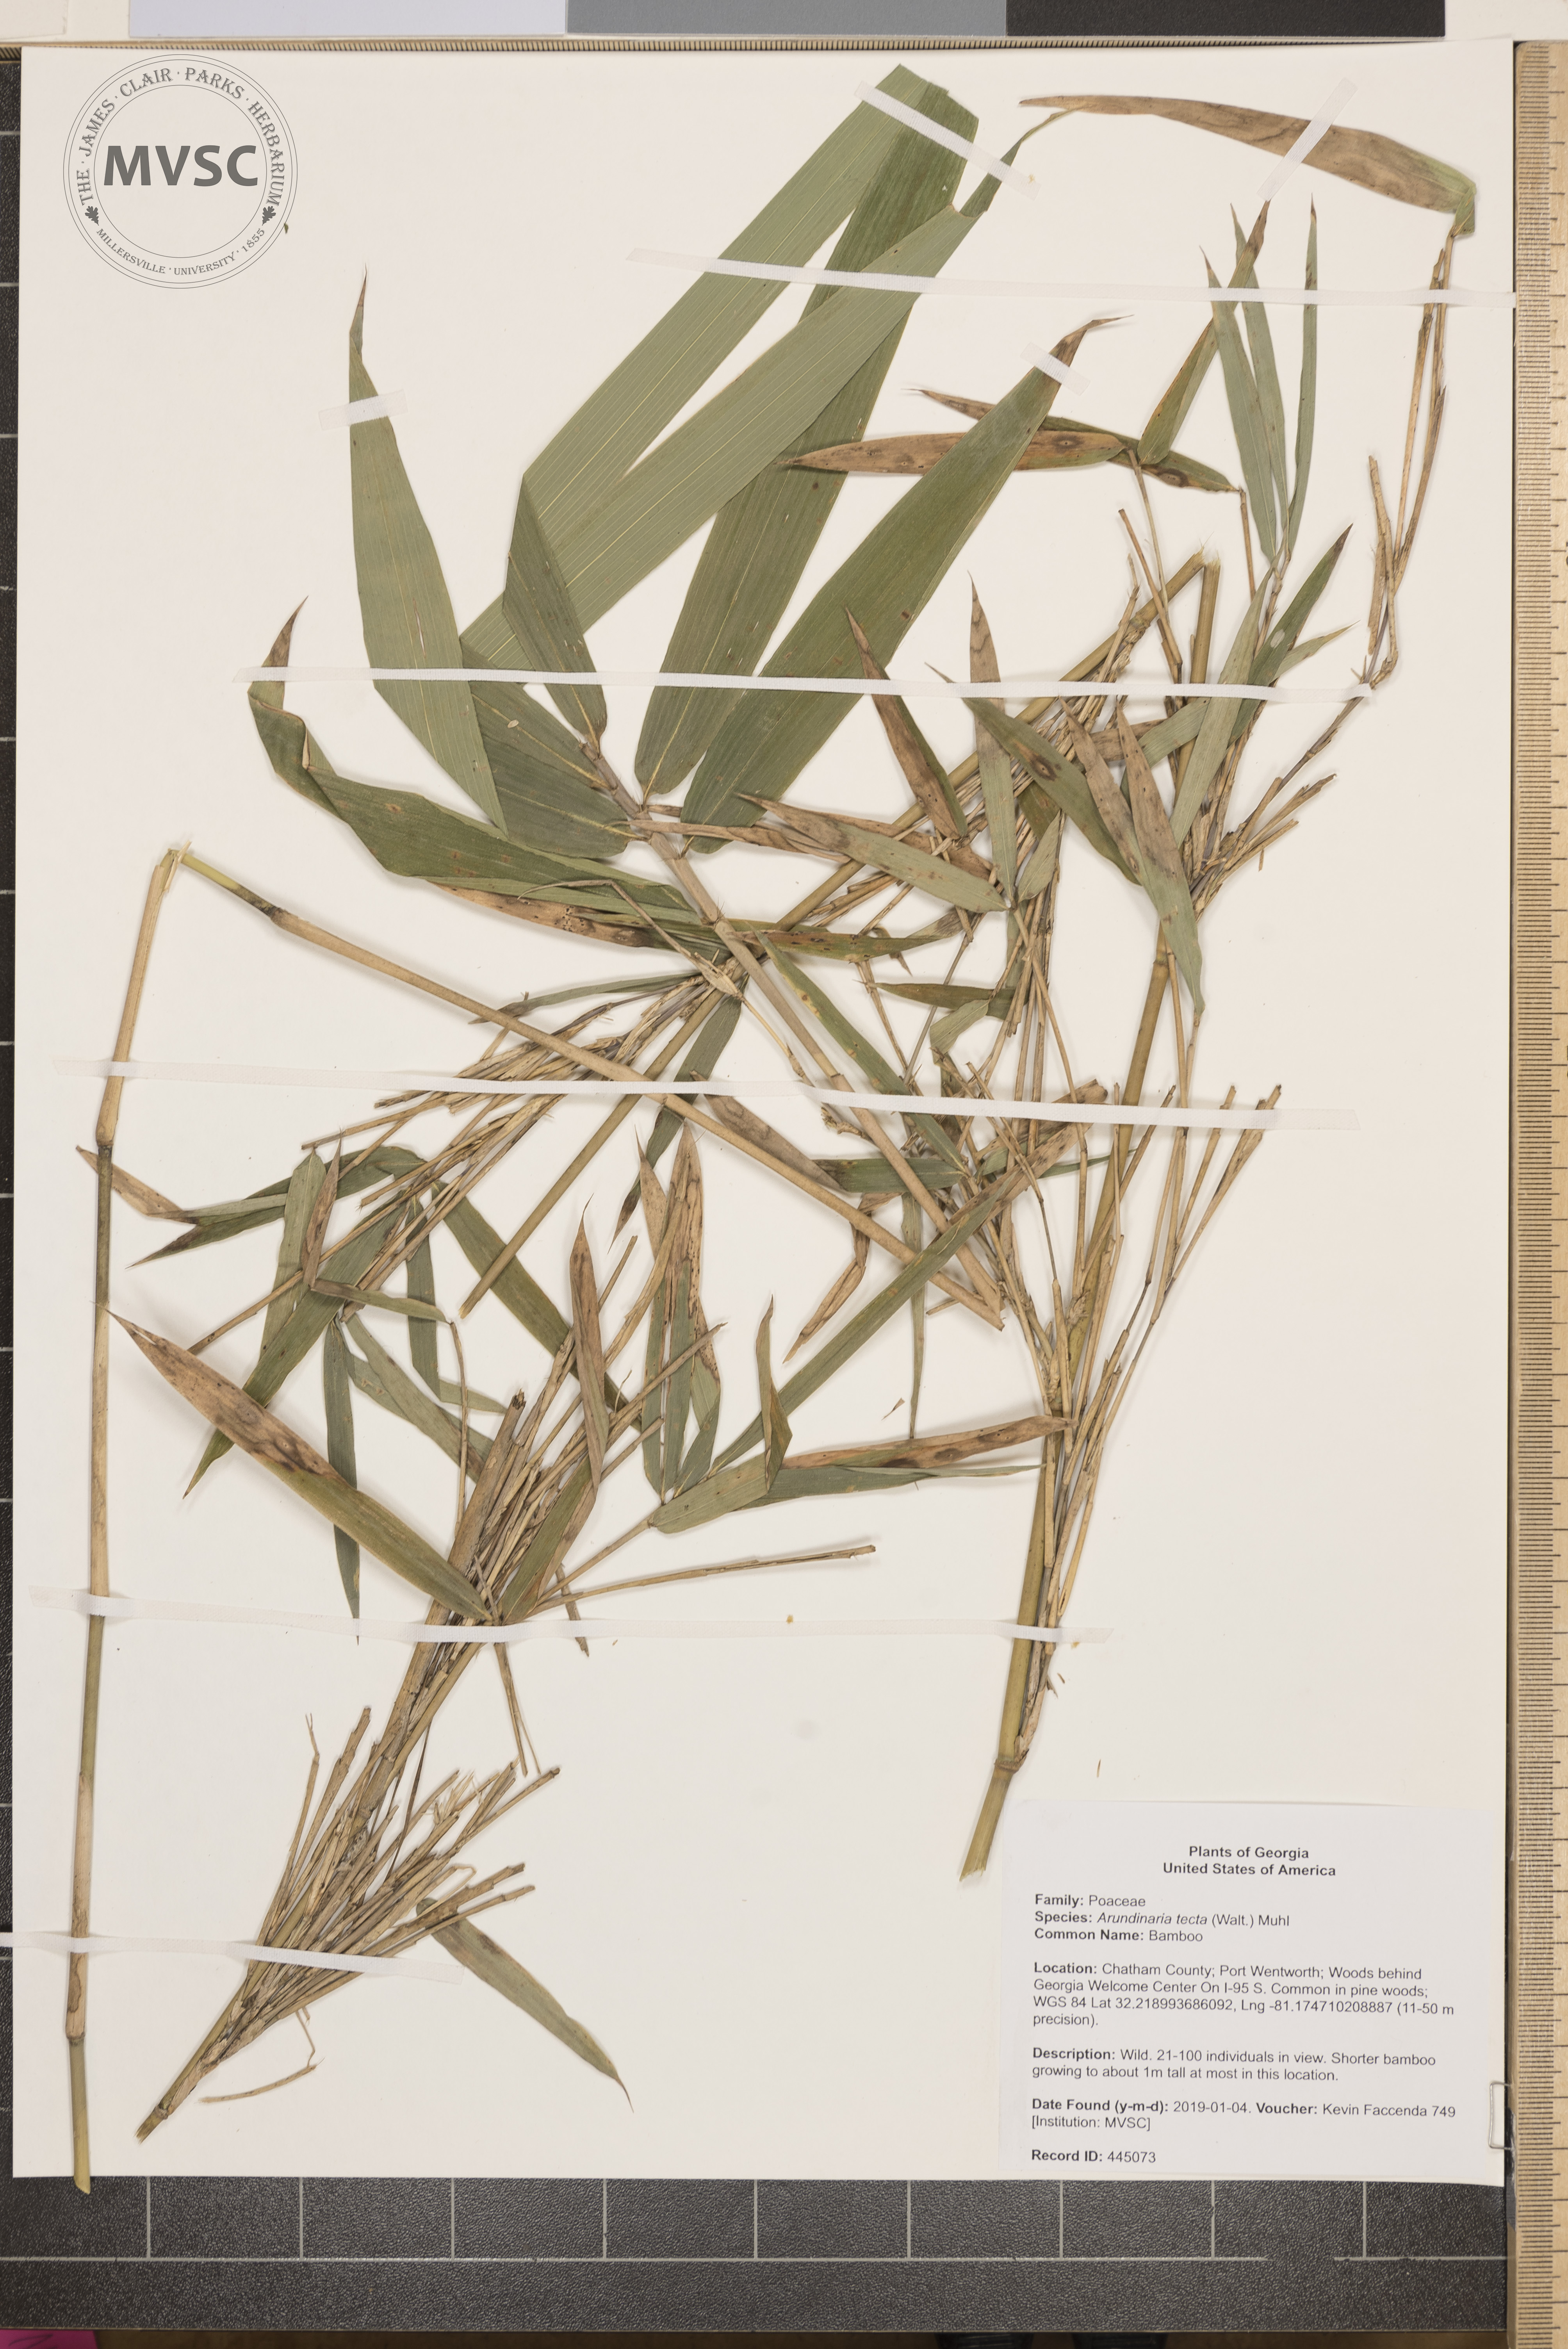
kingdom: Plantae
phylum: Tracheophyta
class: Liliopsida
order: Poales
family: Poaceae
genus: Arundinaria
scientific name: Arundinaria tecta
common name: Bamboo
